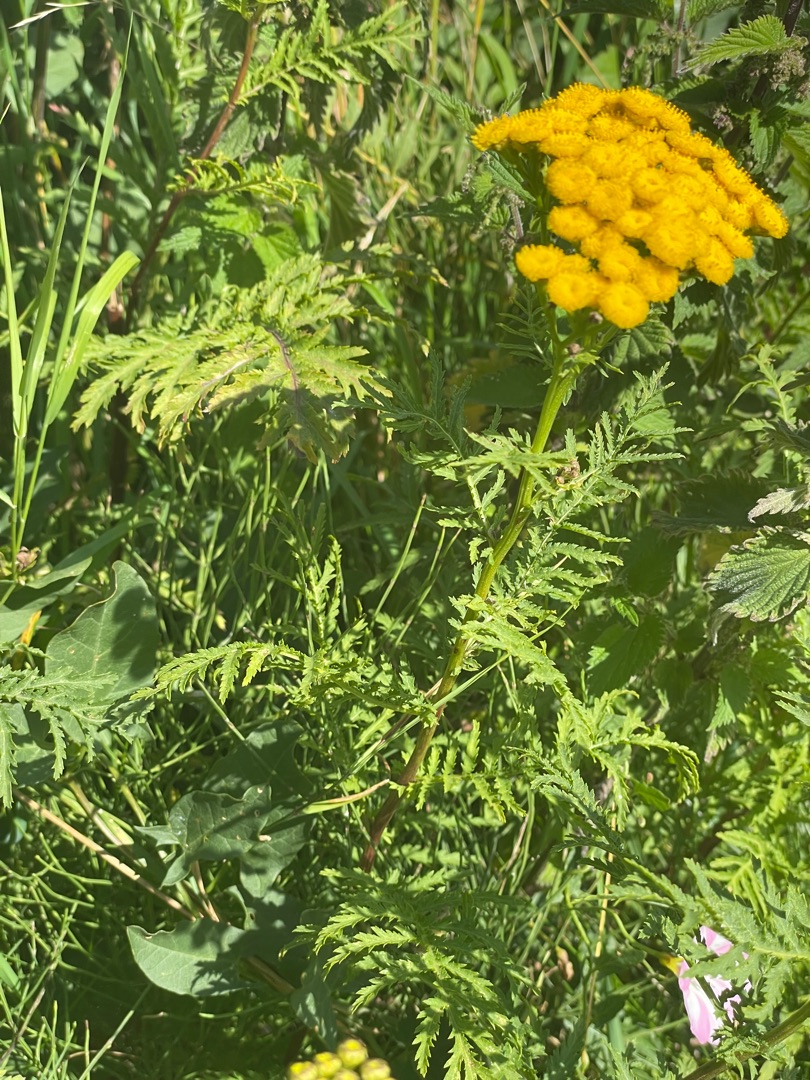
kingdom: Plantae
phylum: Tracheophyta
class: Magnoliopsida
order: Asterales
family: Asteraceae
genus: Tanacetum
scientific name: Tanacetum vulgare
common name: Rejnfan
